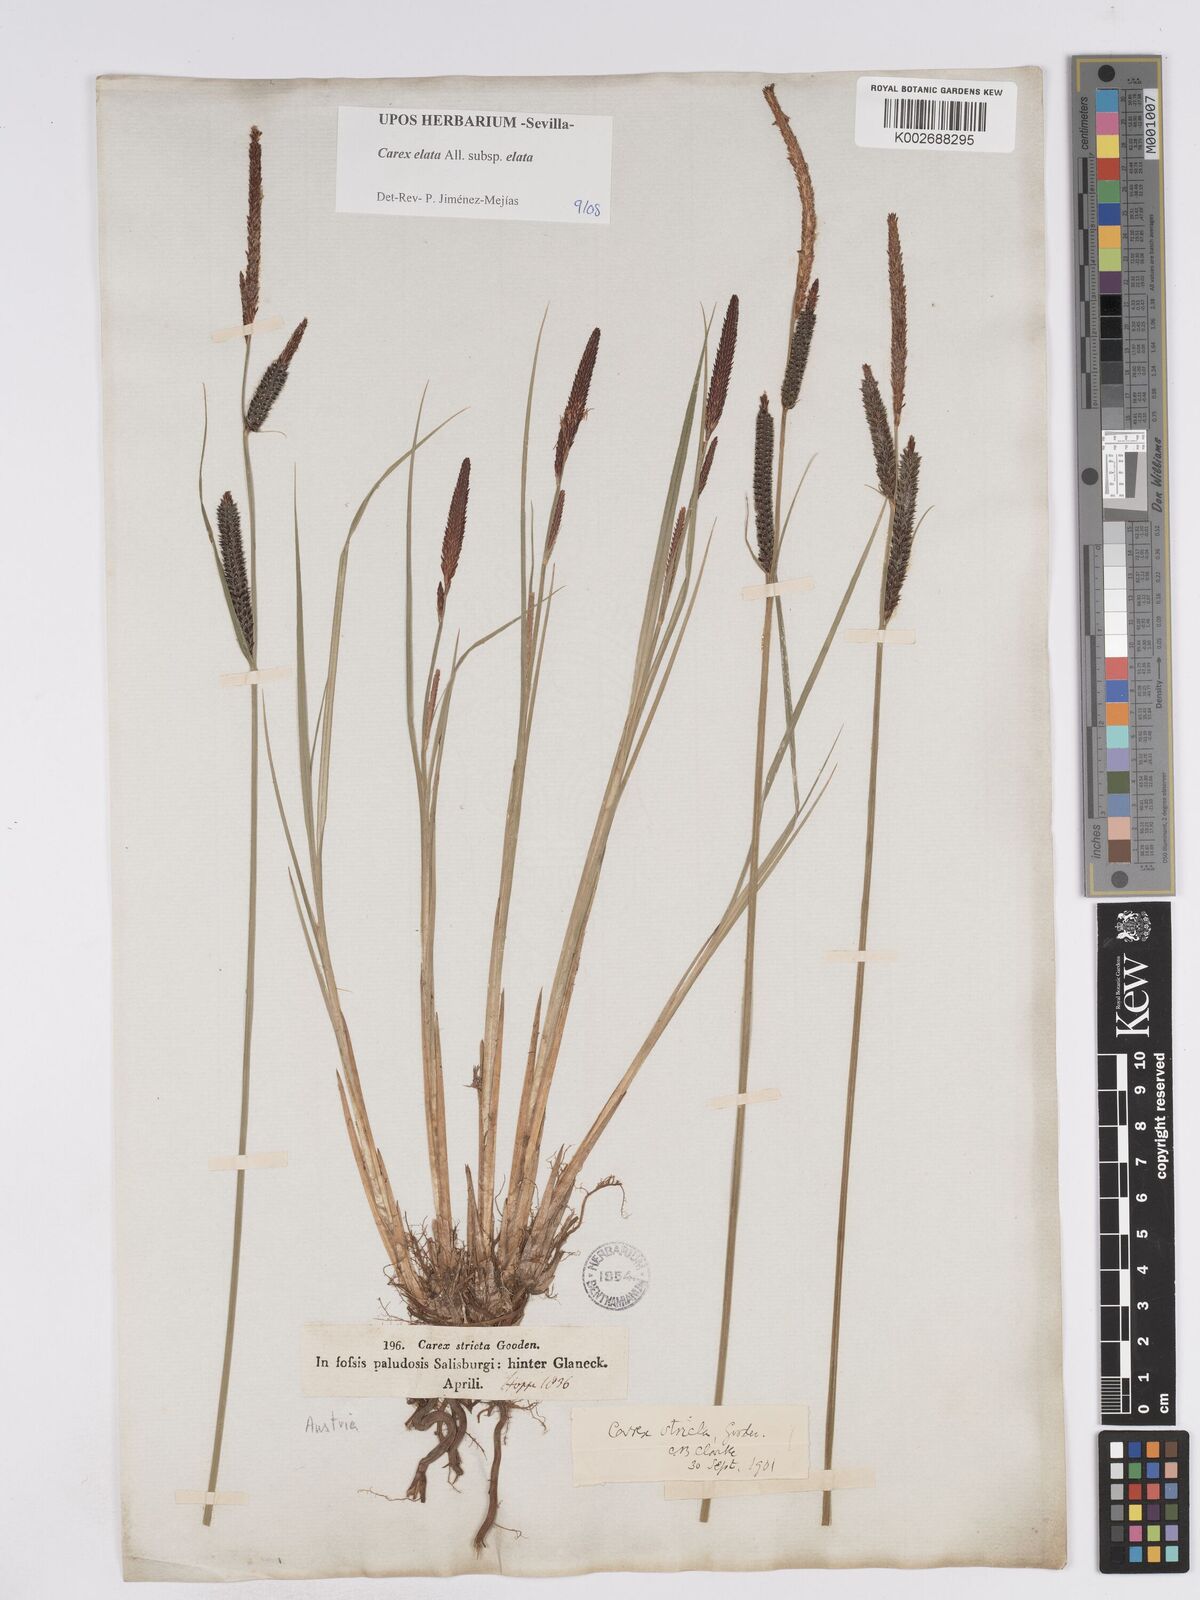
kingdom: Plantae
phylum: Tracheophyta
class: Liliopsida
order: Poales
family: Cyperaceae
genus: Carex
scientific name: Carex elata
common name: Tufted sedge
